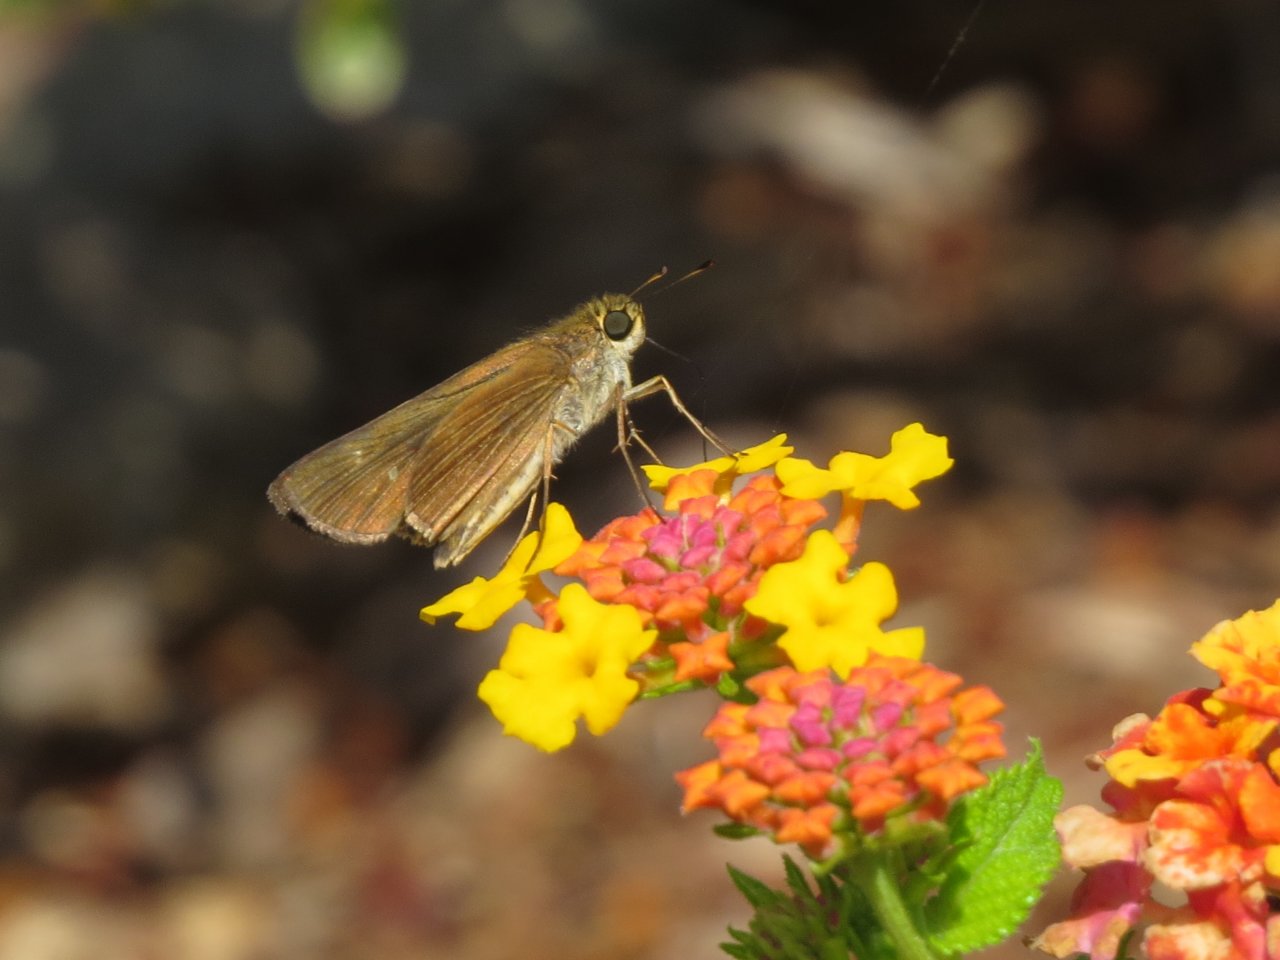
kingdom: Animalia
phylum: Arthropoda
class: Insecta
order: Lepidoptera
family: Hesperiidae
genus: Panoquina
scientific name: Panoquina ocola
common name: Ocola Skipper
